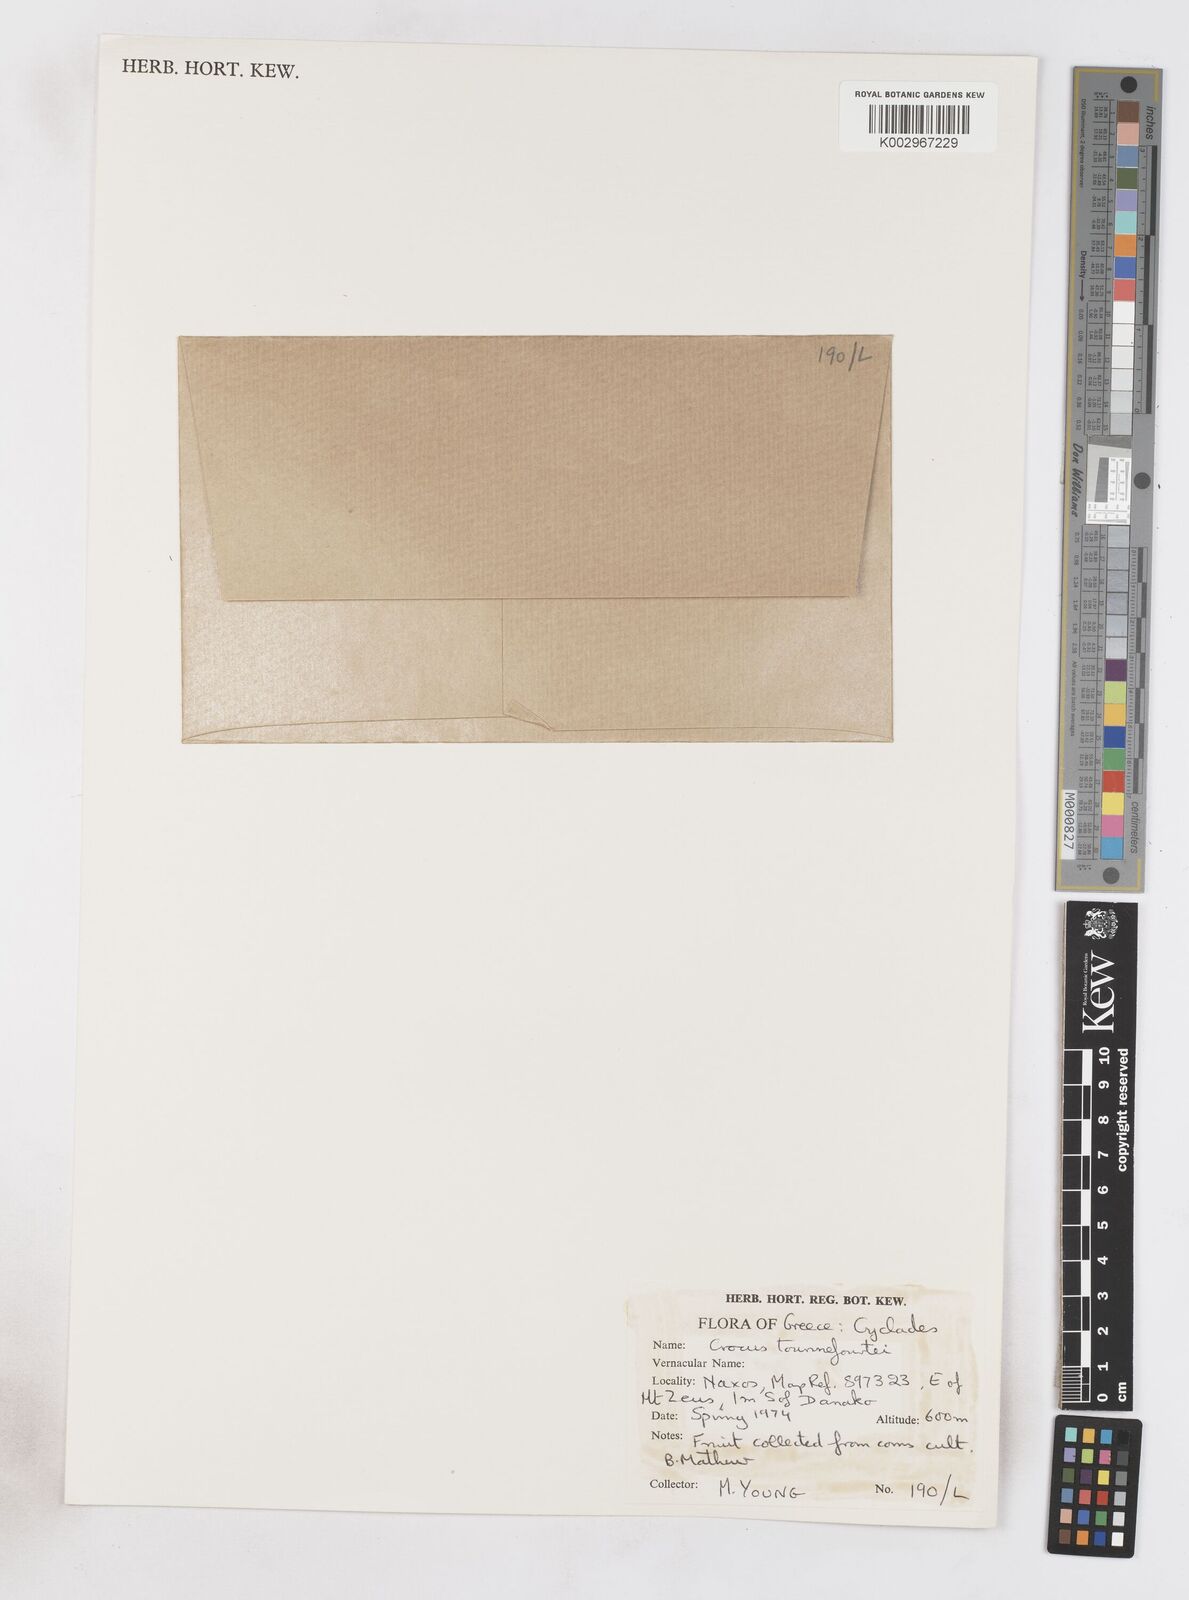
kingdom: Plantae
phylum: Tracheophyta
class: Liliopsida
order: Asparagales
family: Iridaceae
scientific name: Iridaceae
